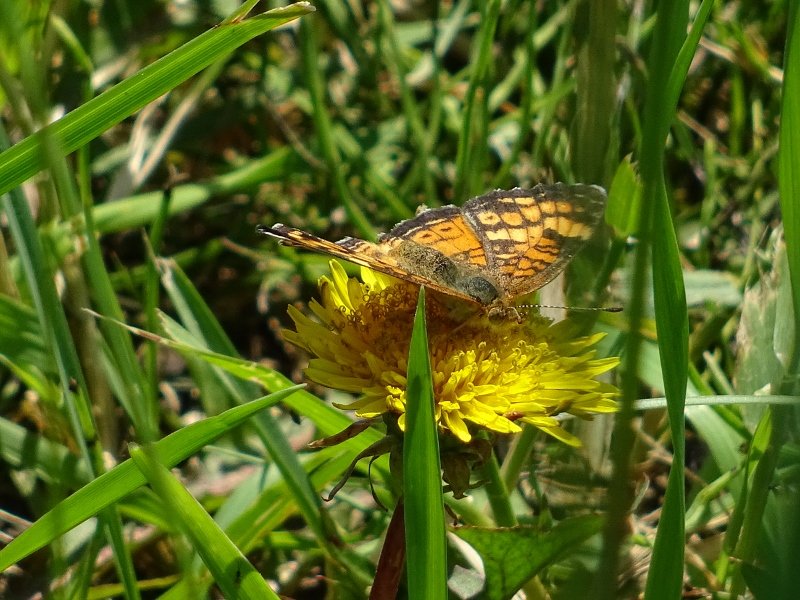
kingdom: Animalia
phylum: Arthropoda
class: Insecta
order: Lepidoptera
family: Nymphalidae
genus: Phyciodes
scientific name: Phyciodes tharos
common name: Pearl Crescent
